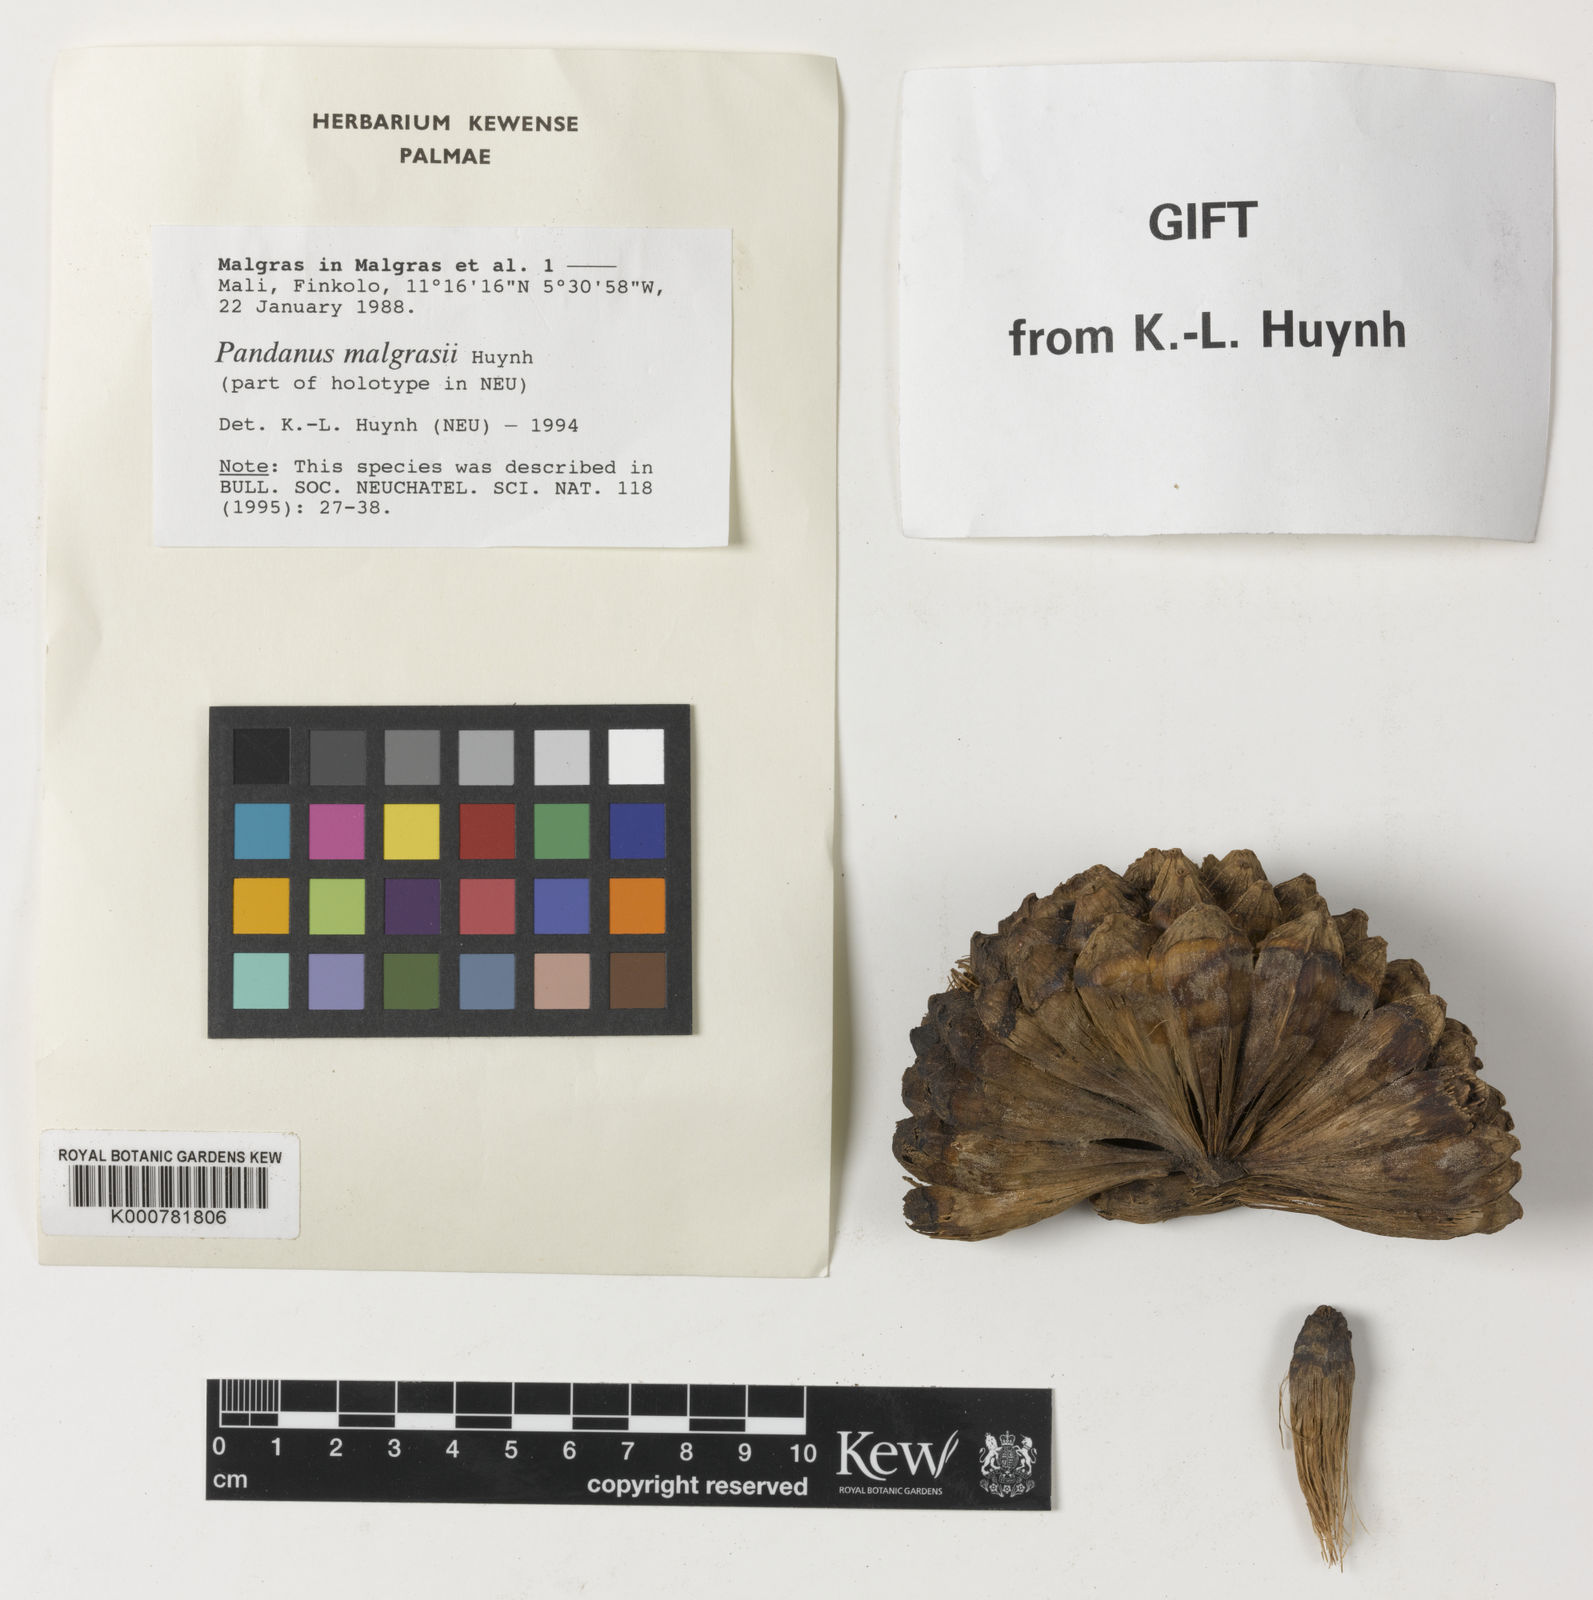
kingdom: Plantae
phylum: Tracheophyta
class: Liliopsida
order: Pandanales
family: Pandanaceae
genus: Pandanus
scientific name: Pandanus malgrasii
